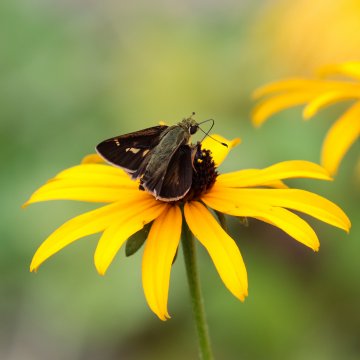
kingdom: Animalia
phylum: Arthropoda
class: Insecta
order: Lepidoptera
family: Hesperiidae
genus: Vernia
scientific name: Vernia verna
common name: Little Glassywing
